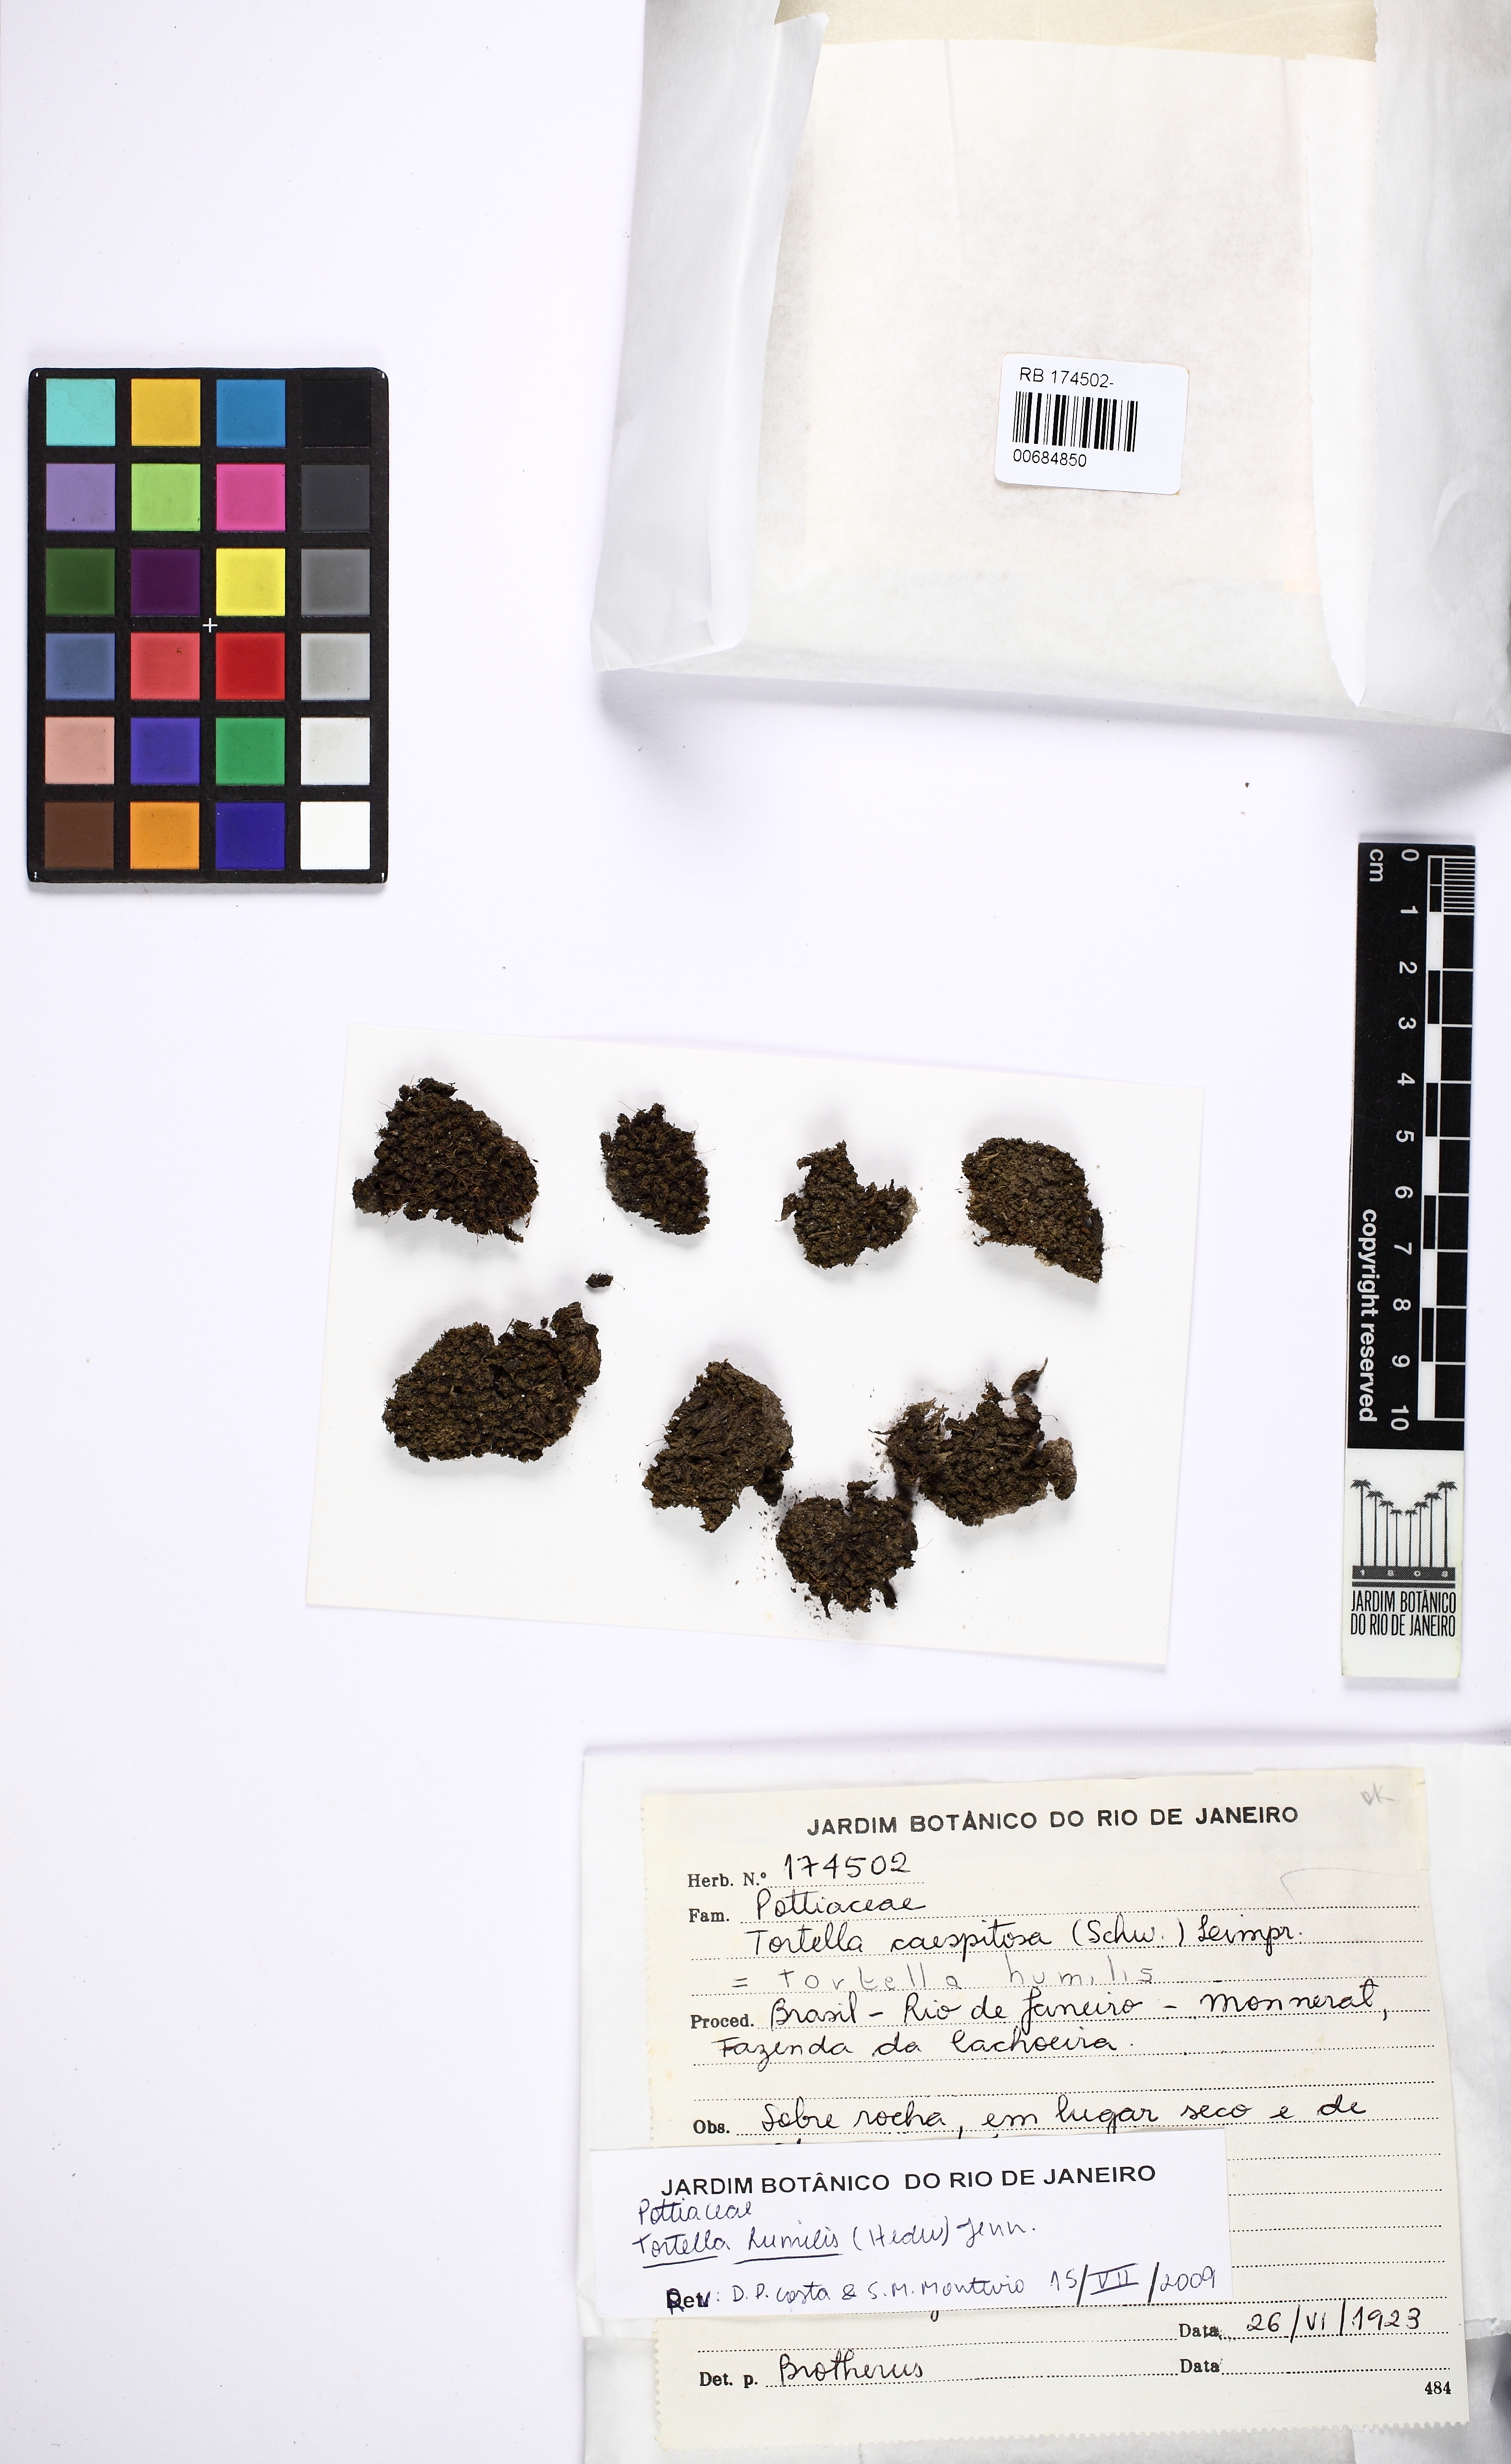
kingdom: Plantae
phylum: Bryophyta
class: Bryopsida
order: Pottiales
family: Pottiaceae
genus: Tortella
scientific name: Tortella humilis
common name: Small twisted moss
